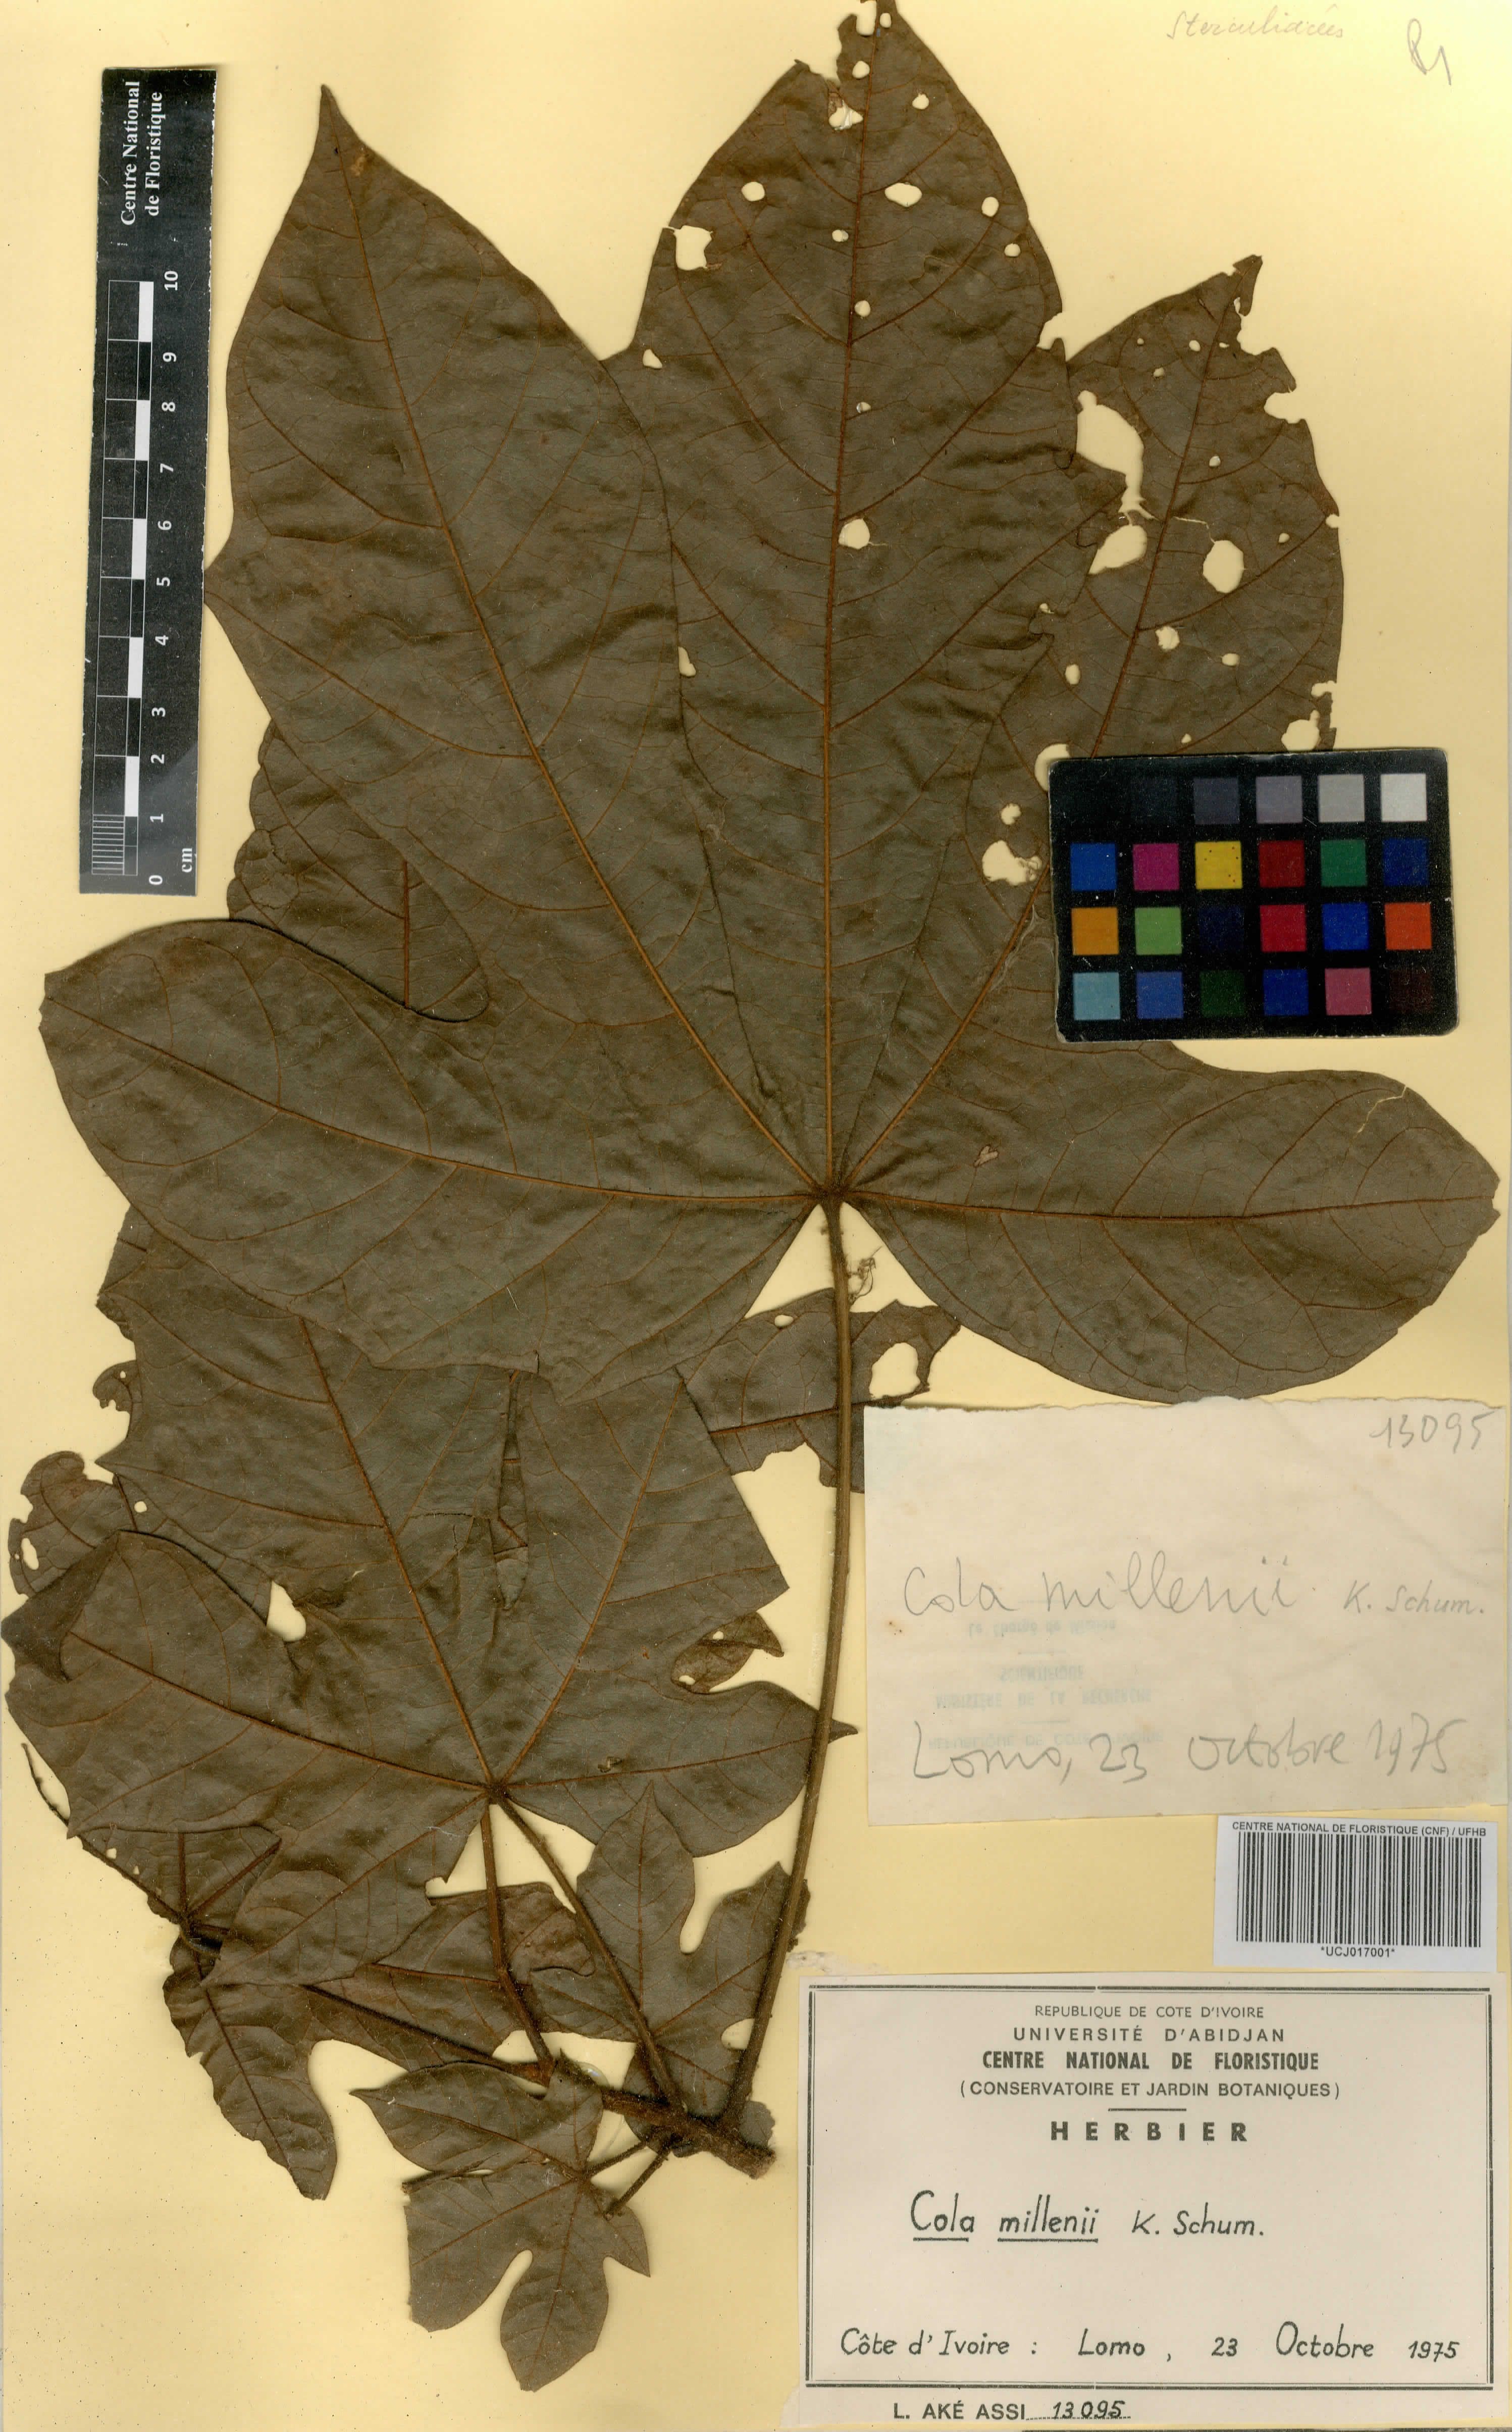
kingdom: Plantae
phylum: Tracheophyta
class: Magnoliopsida
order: Malvales
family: Malvaceae
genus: Cola
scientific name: Cola millenii
